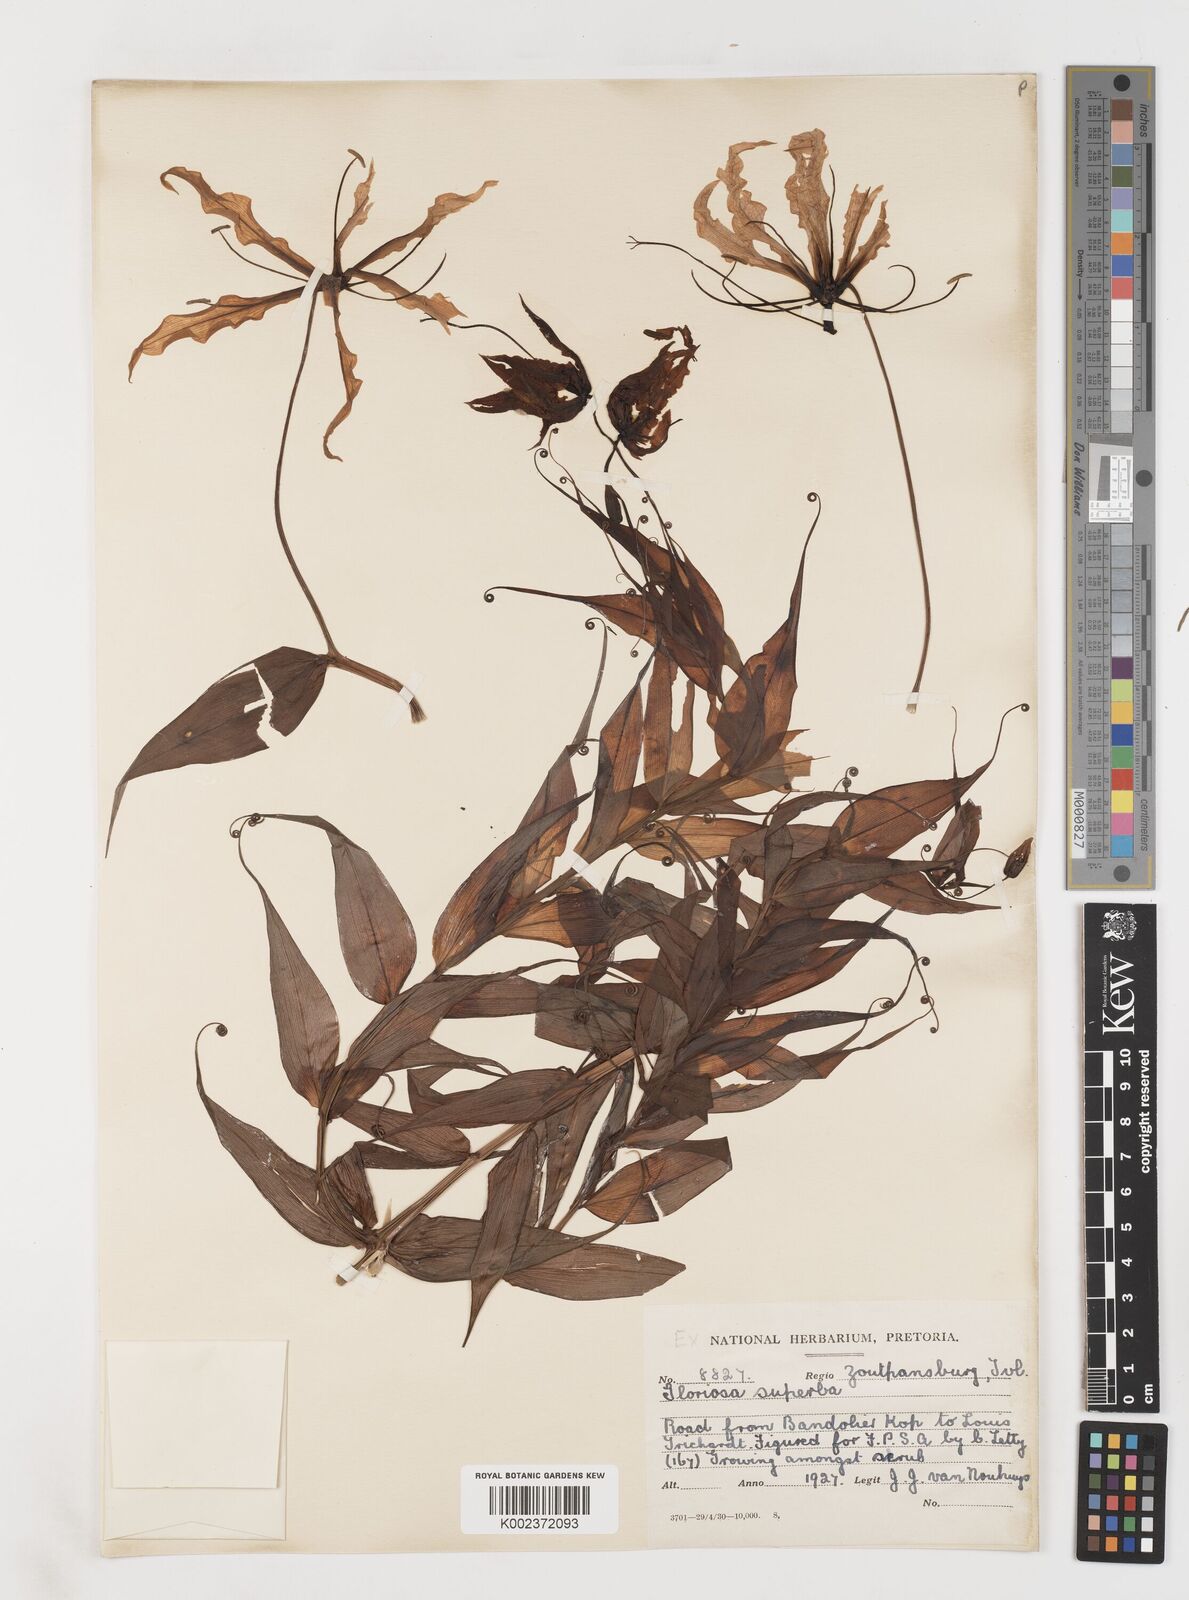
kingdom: Plantae
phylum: Tracheophyta
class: Liliopsida
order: Liliales
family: Colchicaceae
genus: Gloriosa
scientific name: Gloriosa superba
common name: Flame lily
